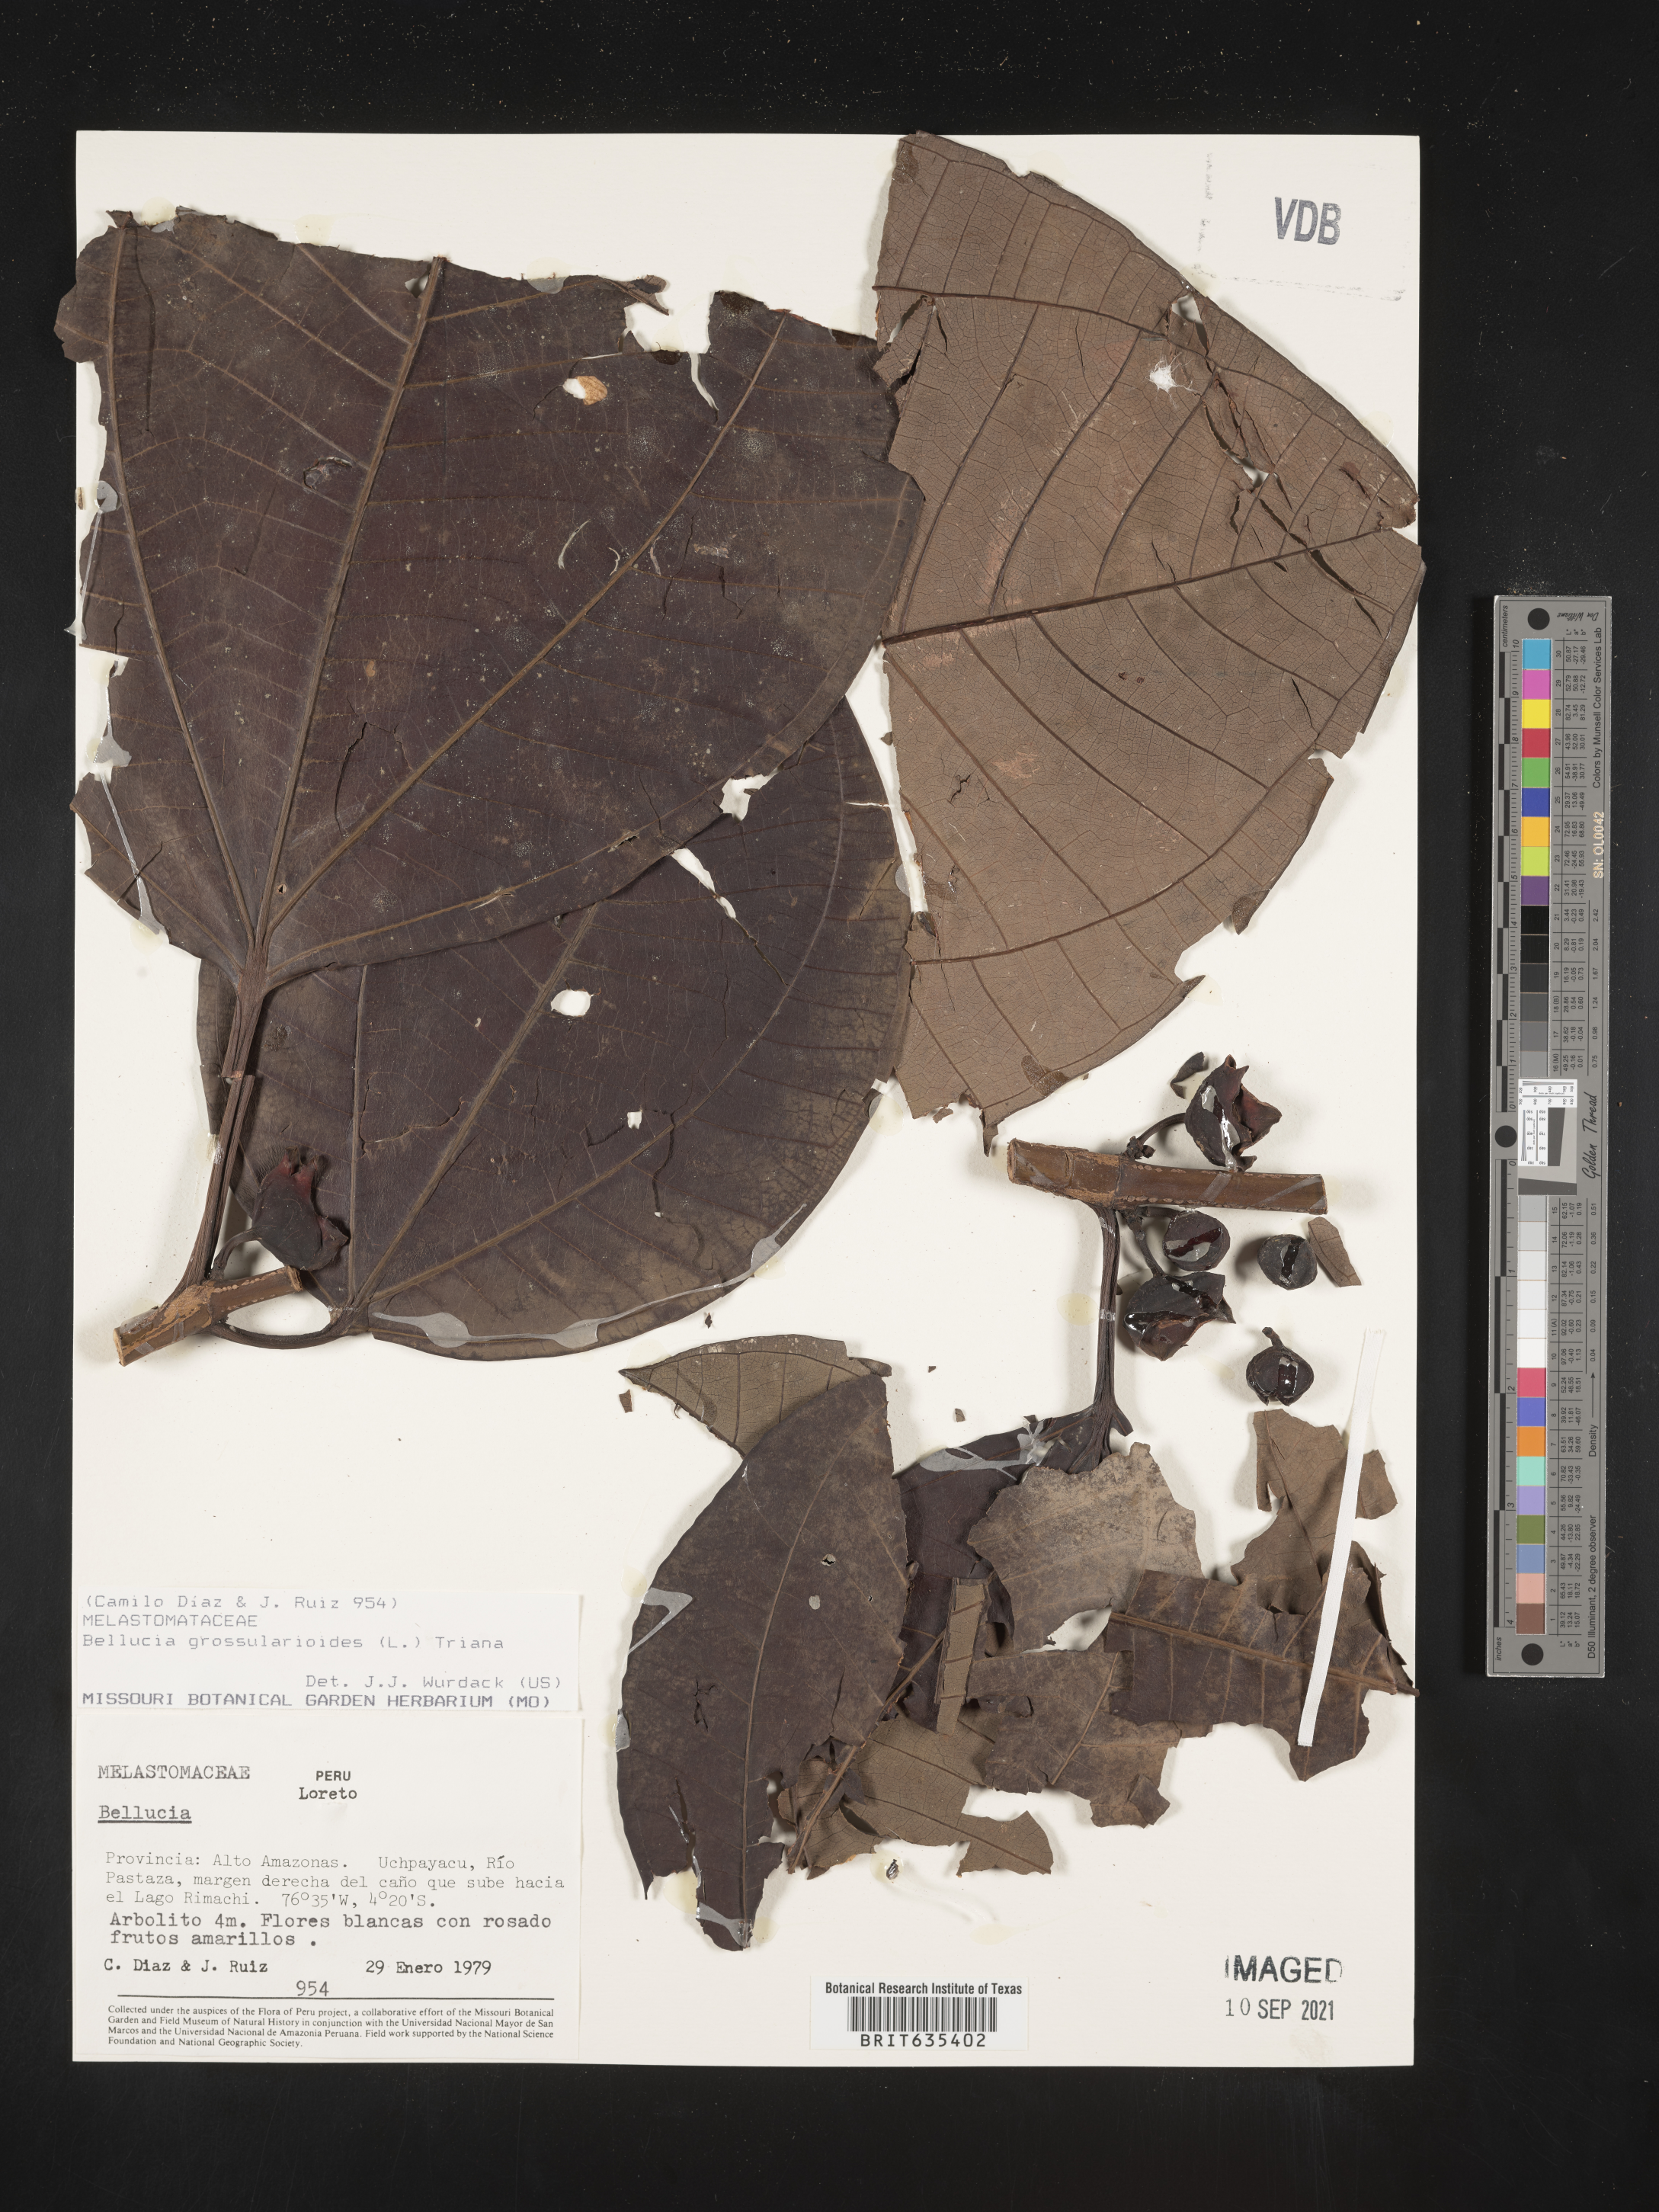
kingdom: Plantae
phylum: Tracheophyta
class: Magnoliopsida
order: Myrtales
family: Melastomataceae
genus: Bellucia
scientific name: Bellucia
